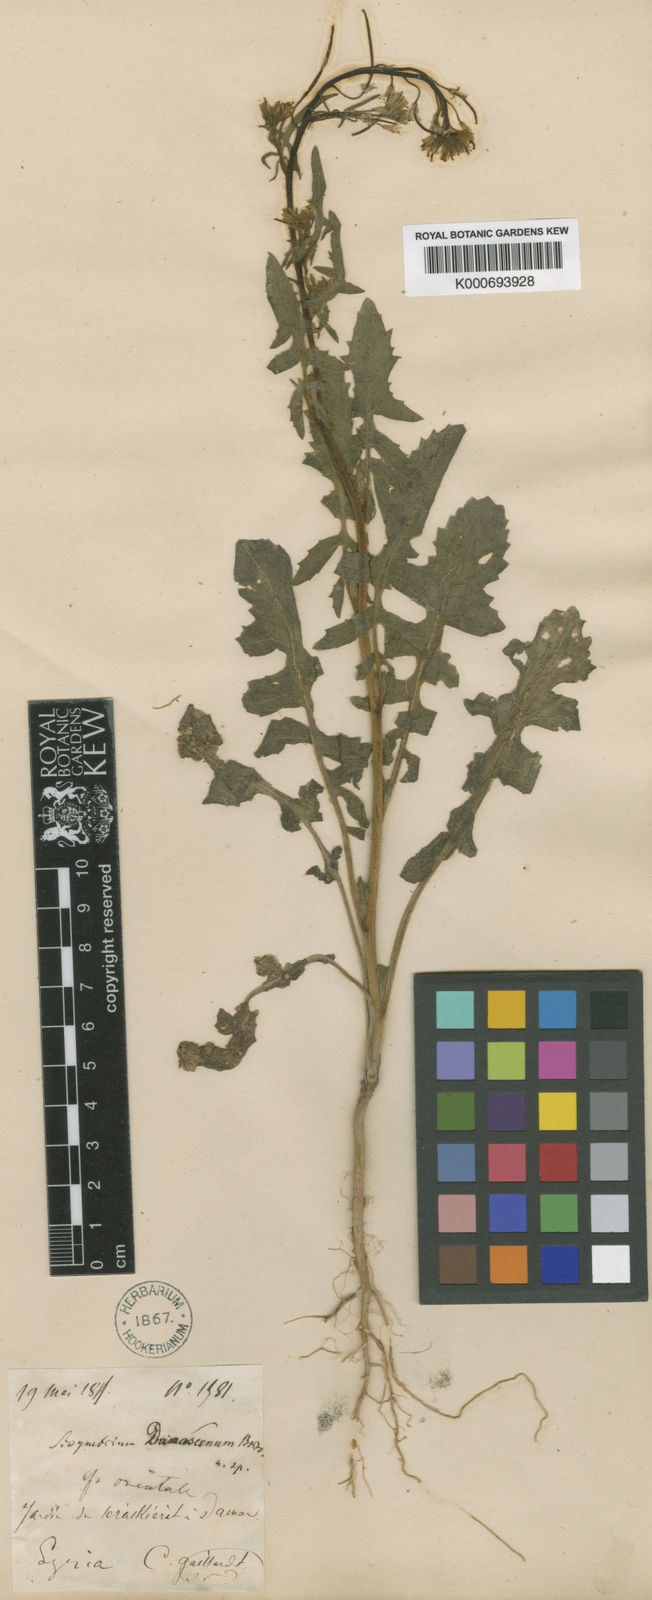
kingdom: Plantae
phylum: Tracheophyta
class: Magnoliopsida
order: Brassicales
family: Brassicaceae
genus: Sisymbrium
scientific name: Sisymbrium damascenum
